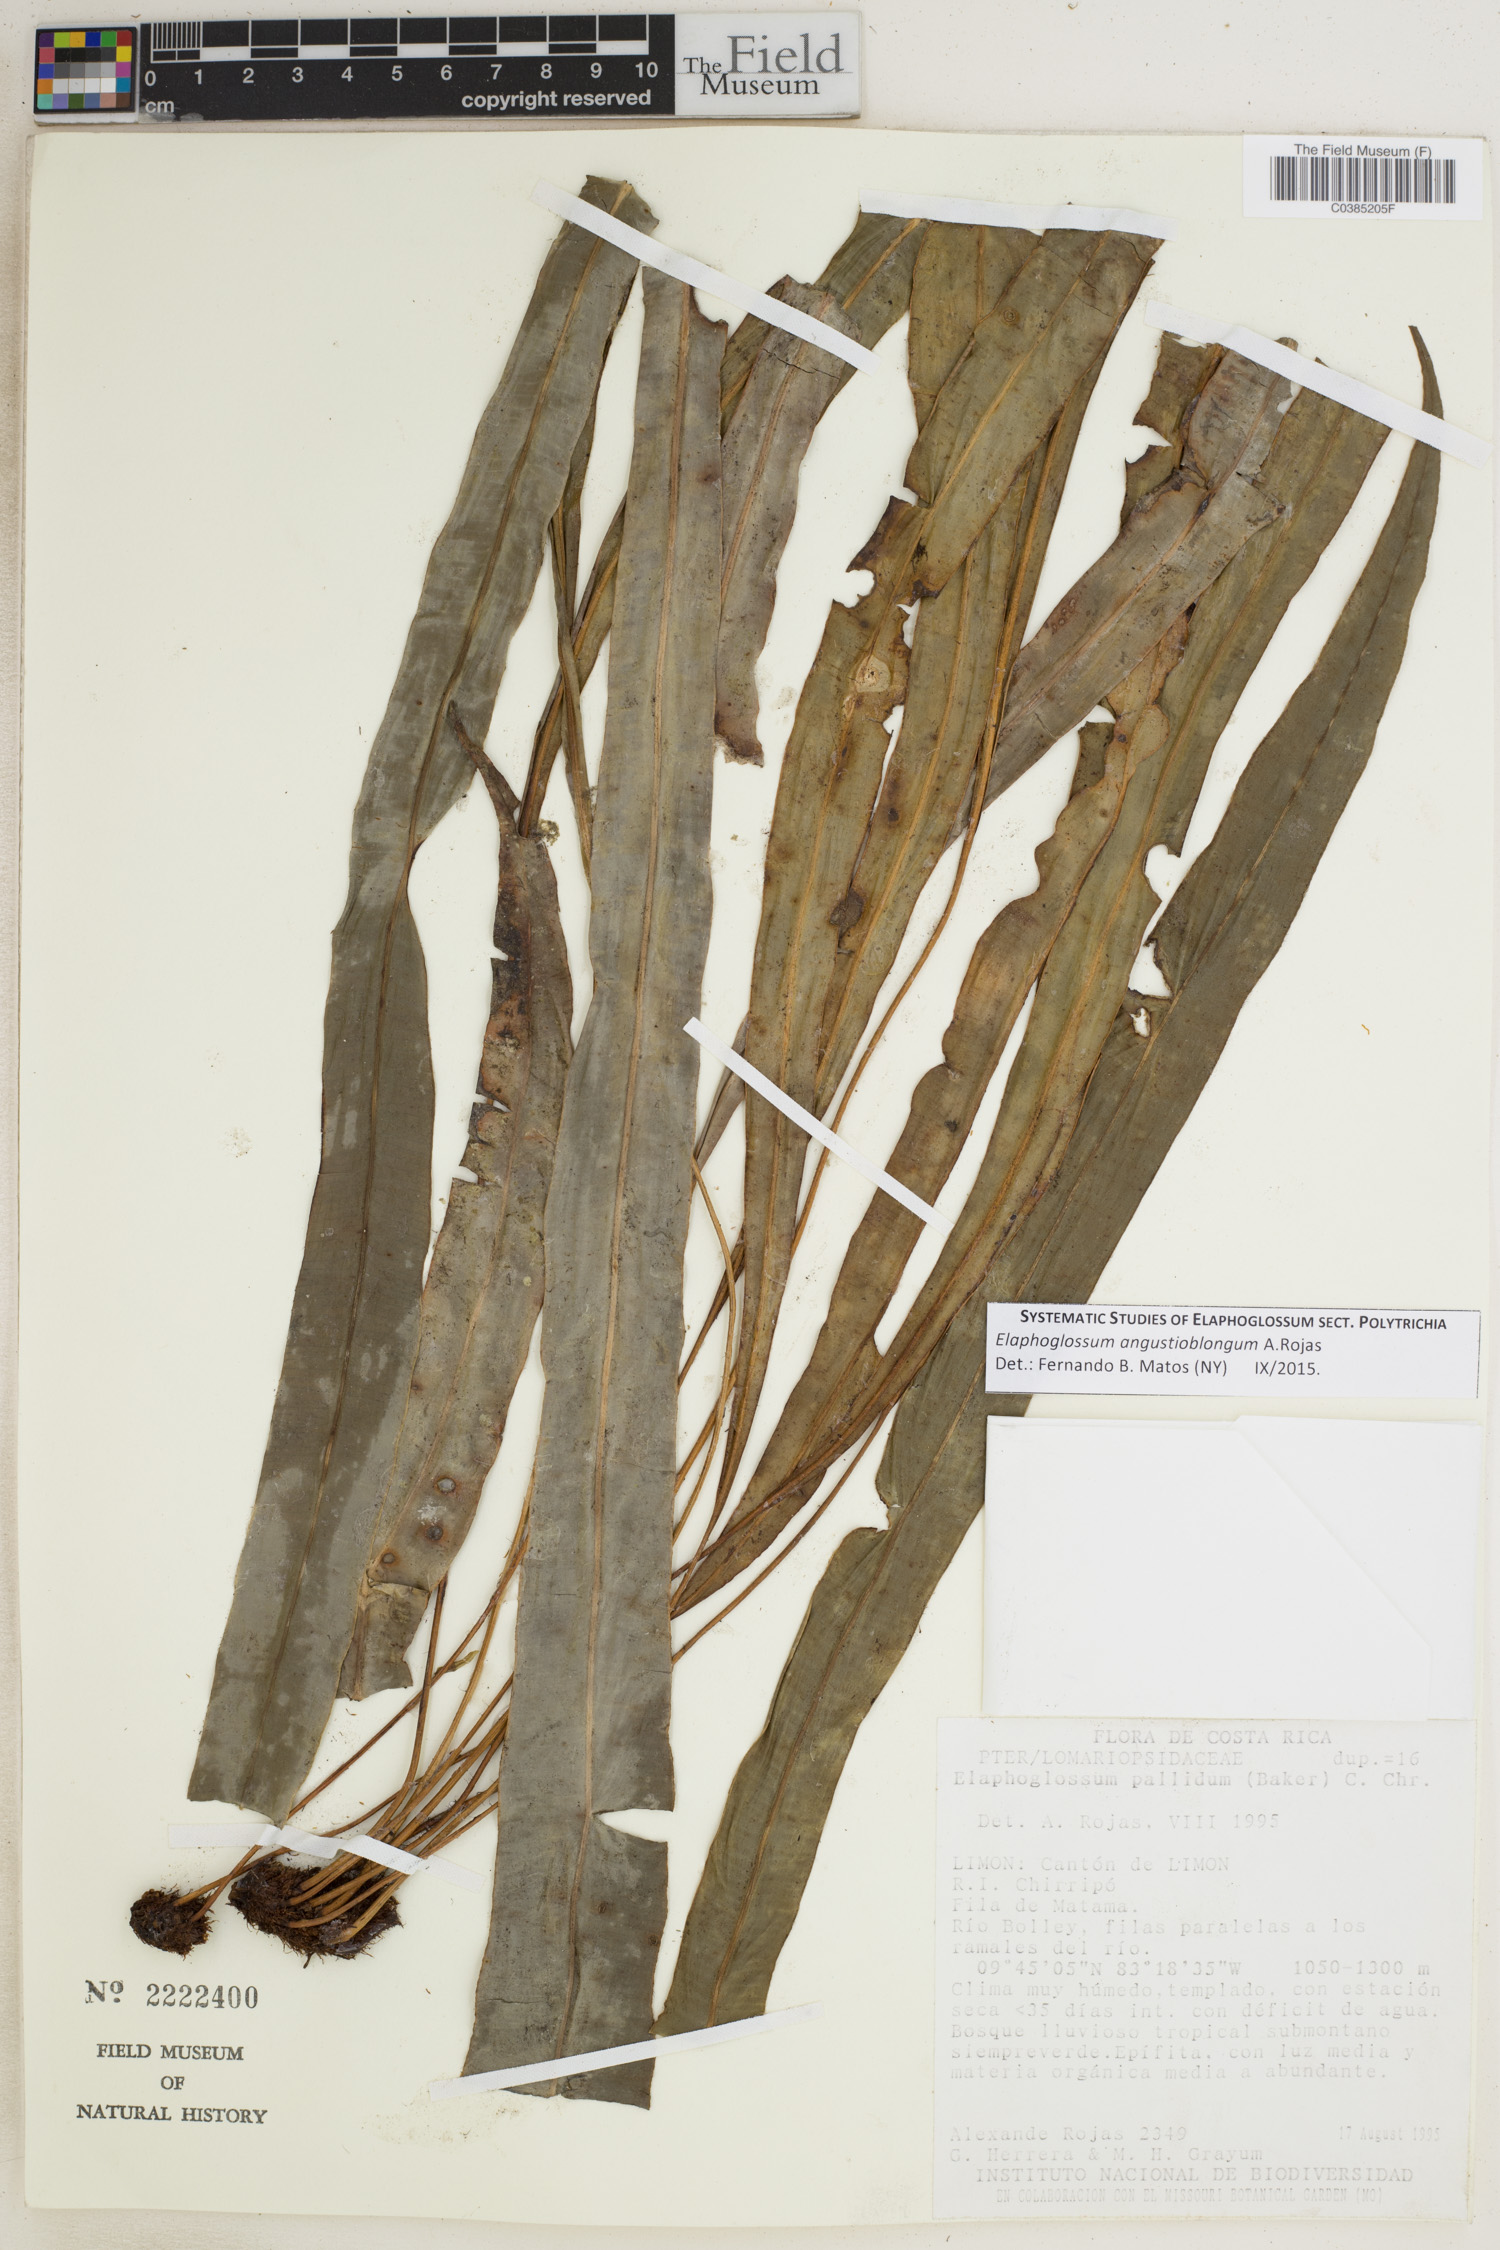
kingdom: Plantae
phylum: Tracheophyta
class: Polypodiopsida
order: Polypodiales
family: Dryopteridaceae
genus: Elaphoglossum
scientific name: Elaphoglossum angustioblongum
